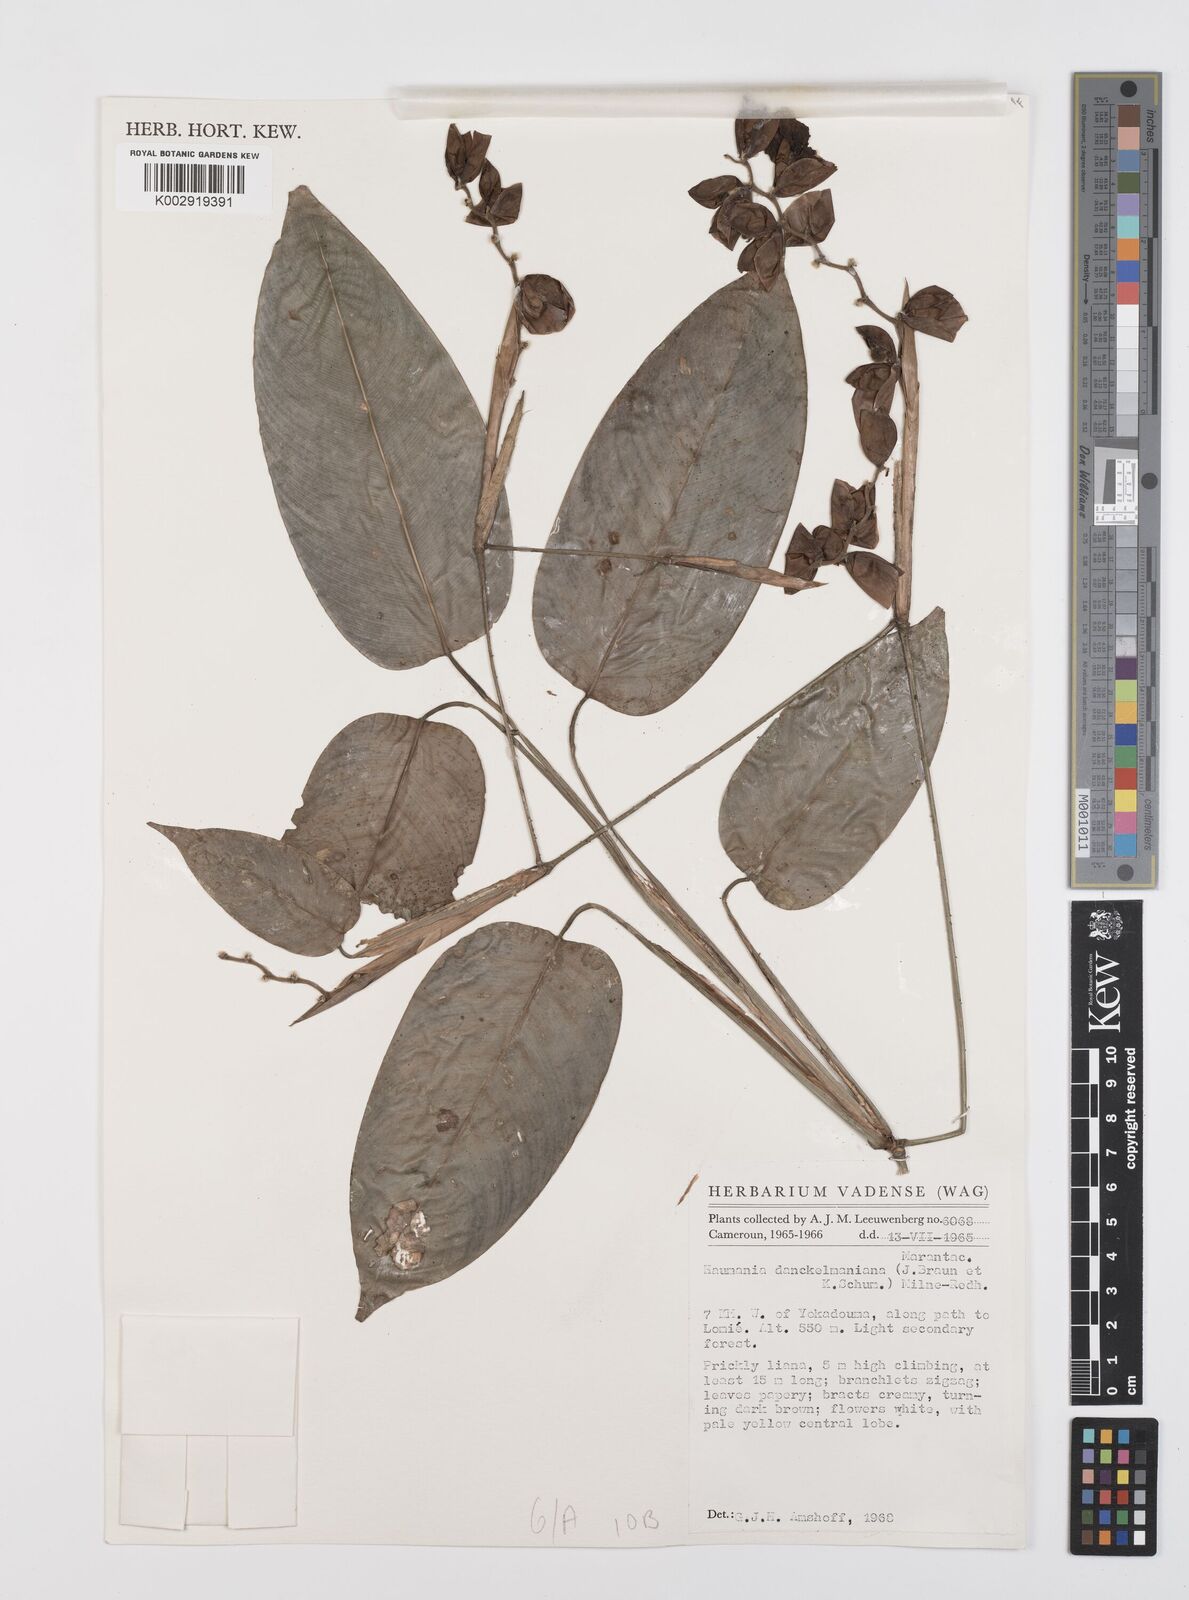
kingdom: Plantae
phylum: Tracheophyta
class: Liliopsida
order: Zingiberales
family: Marantaceae
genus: Haumania
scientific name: Haumania danckelmaniana
